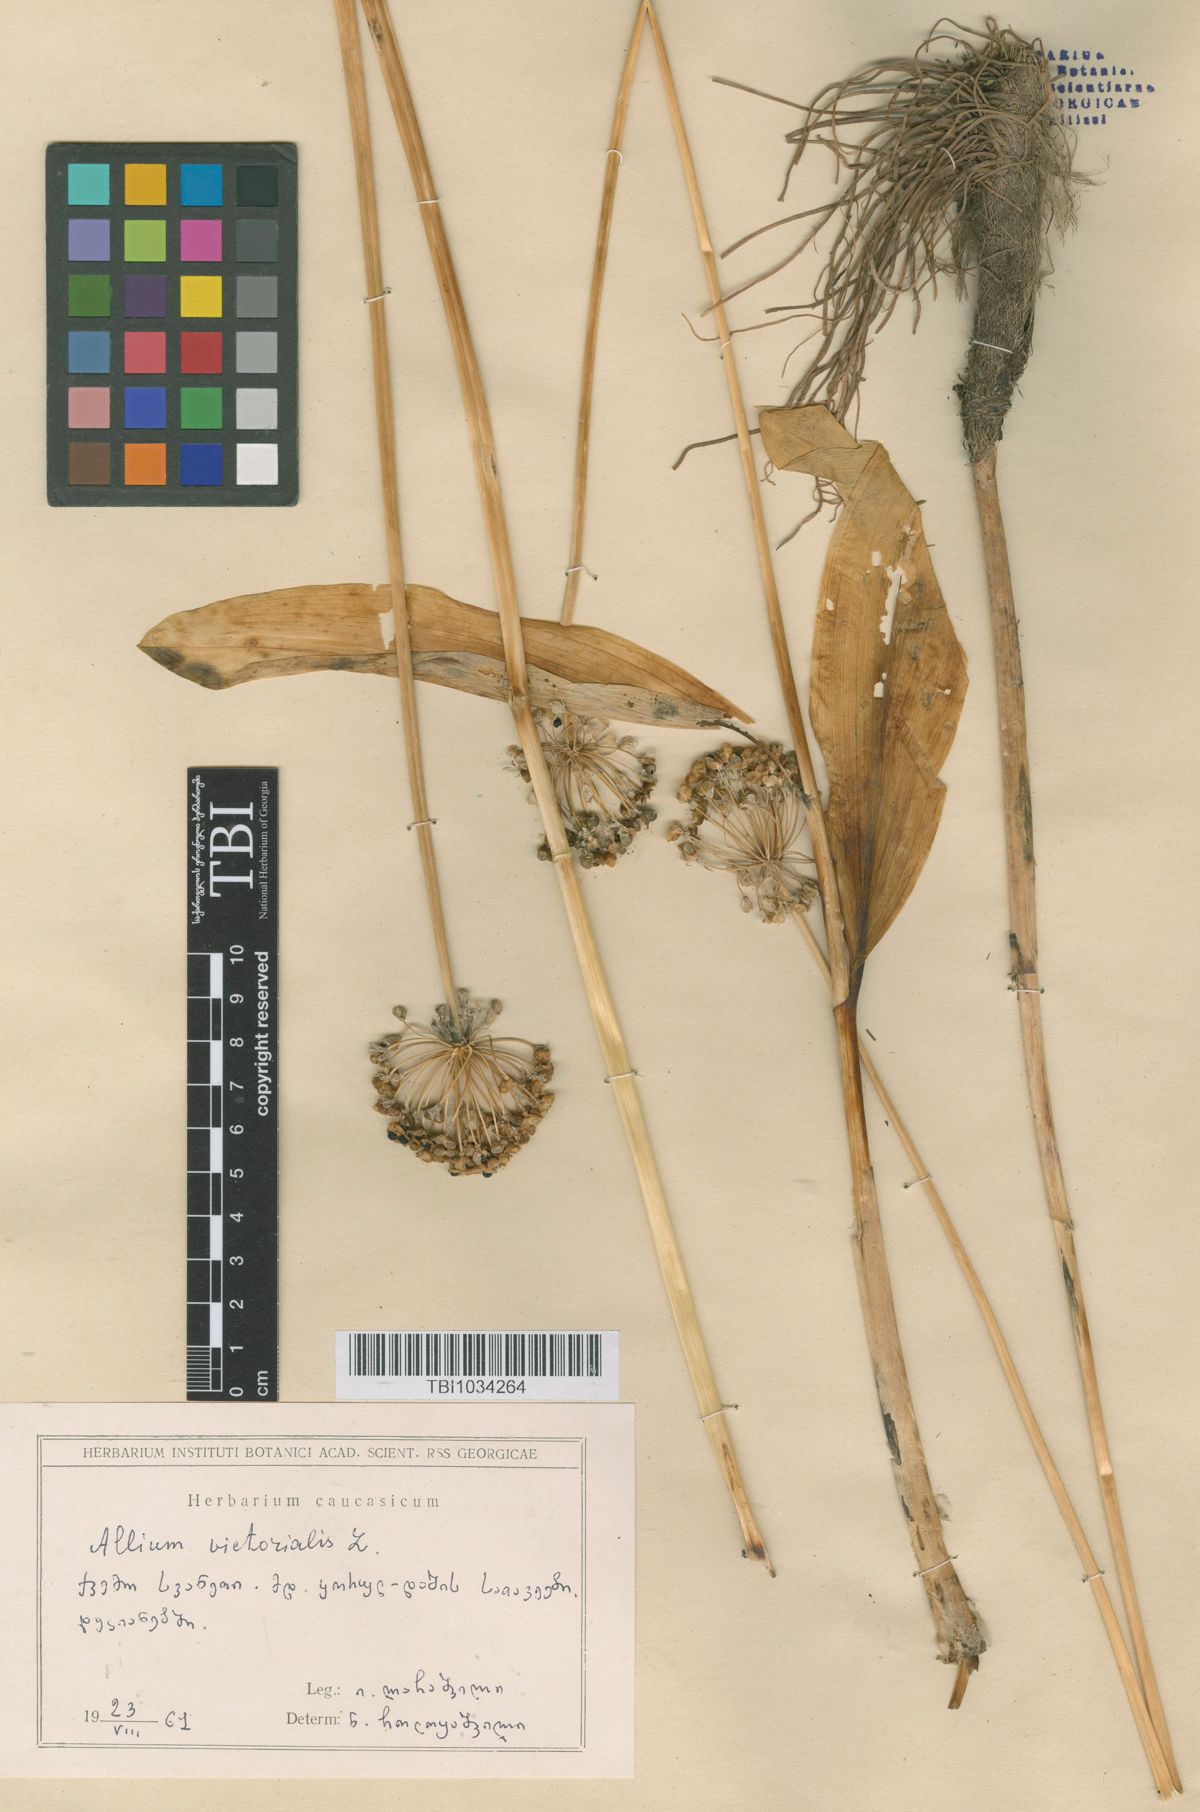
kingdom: Plantae
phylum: Tracheophyta
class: Liliopsida
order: Asparagales
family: Amaryllidaceae
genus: Allium
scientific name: Allium victorialis
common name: Alpine leek
